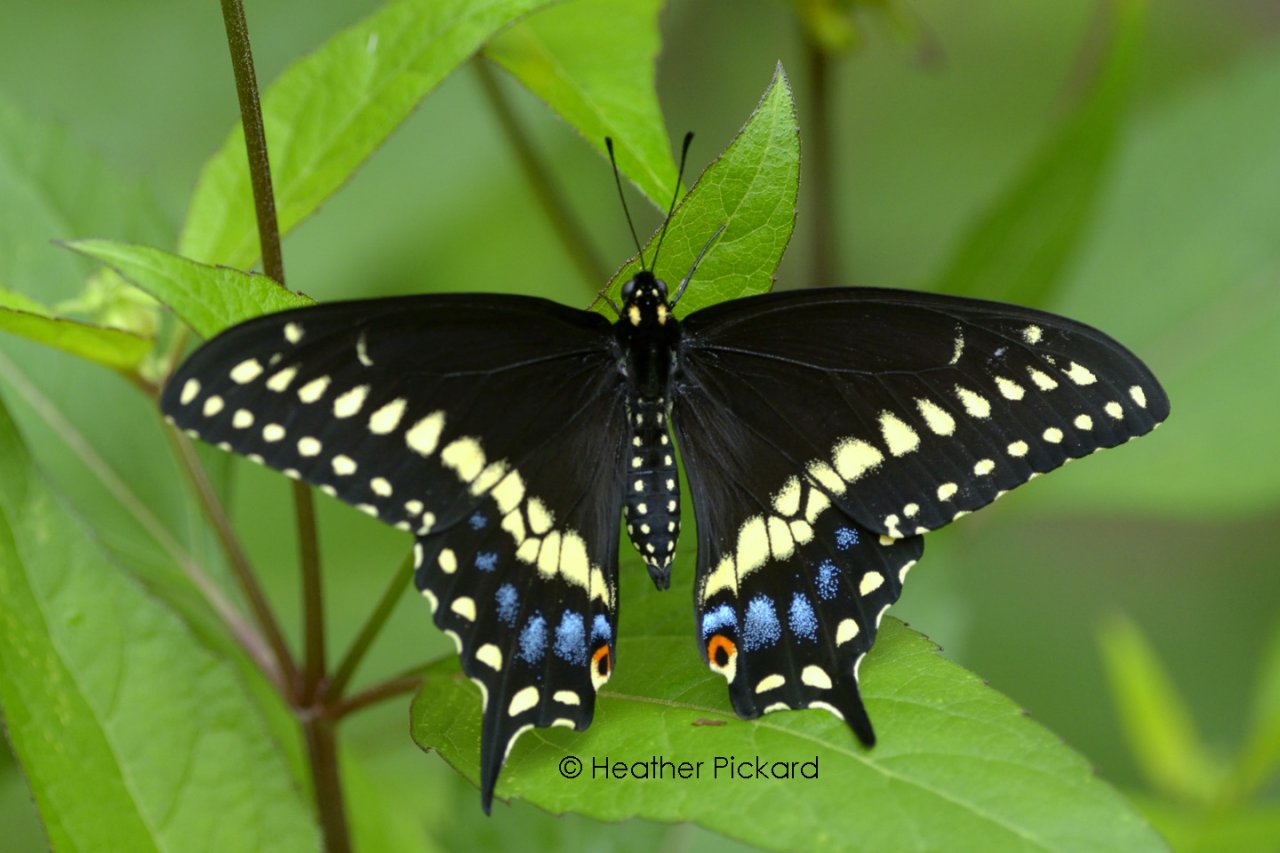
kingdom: Animalia
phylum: Arthropoda
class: Insecta
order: Lepidoptera
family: Papilionidae
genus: Papilio
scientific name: Papilio polyxenes
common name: Black Swallowtail
